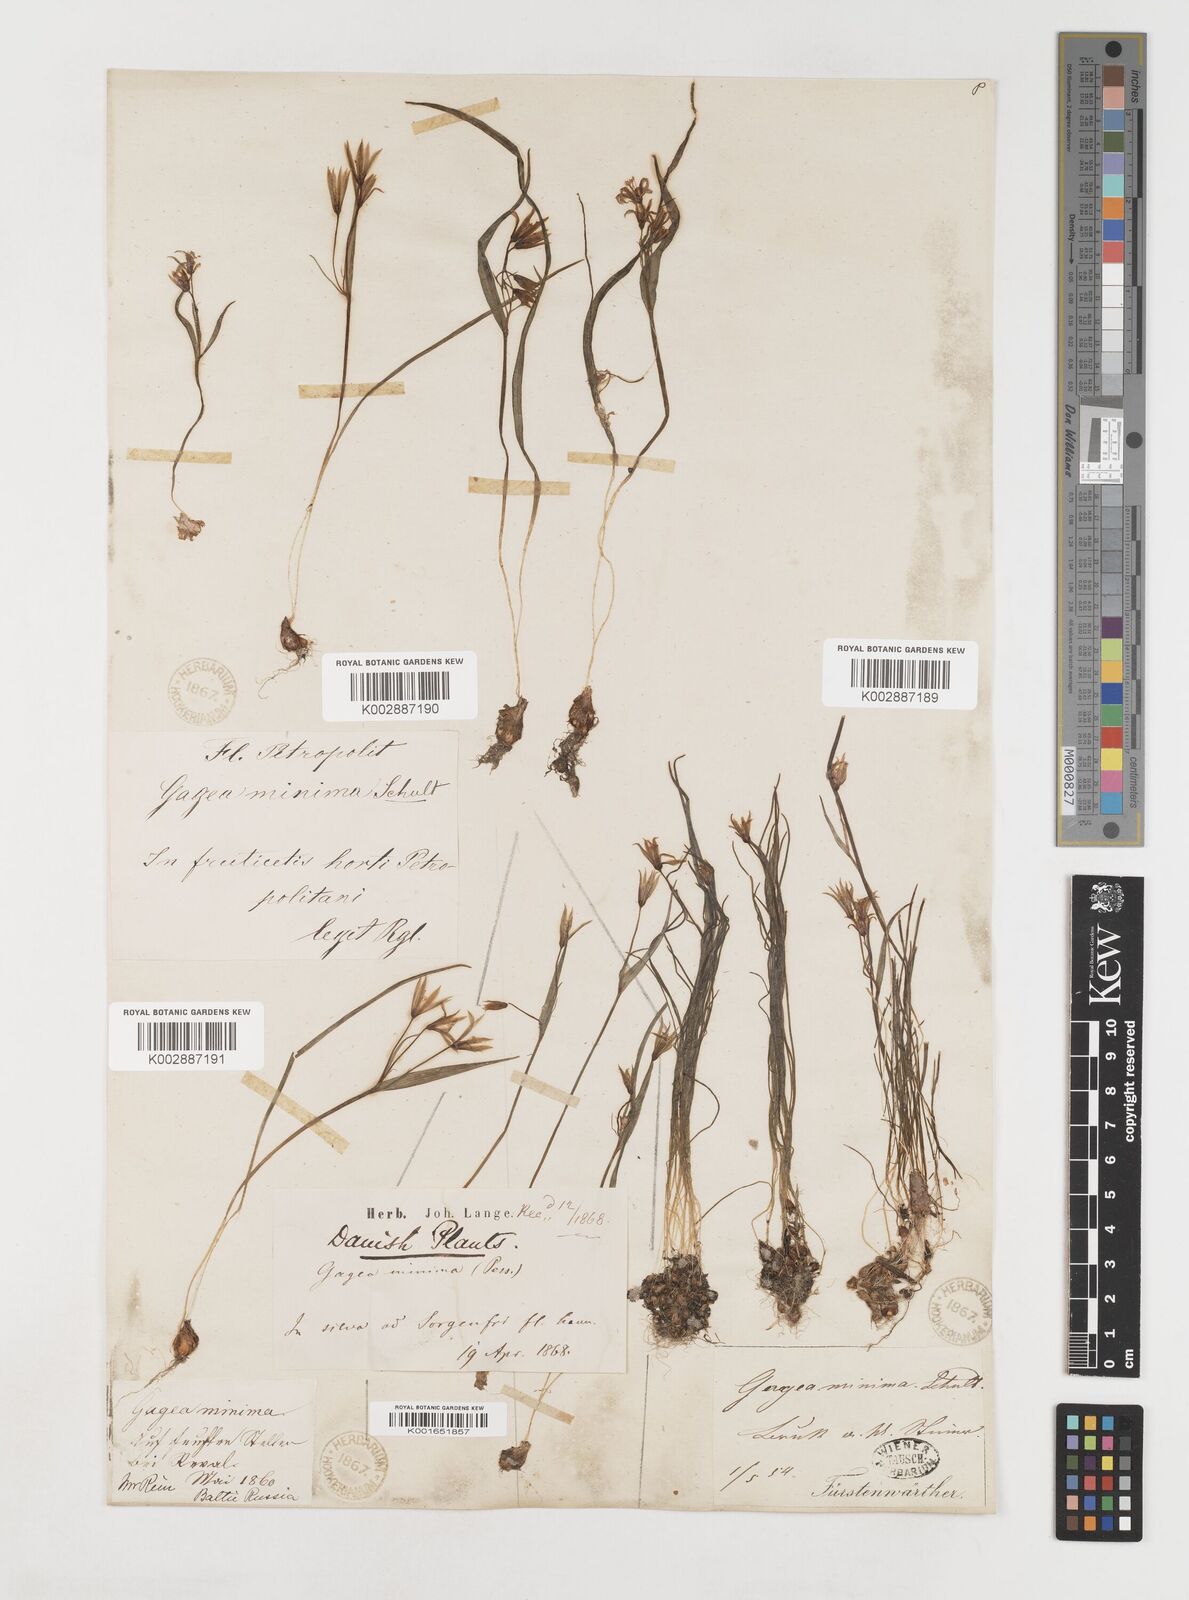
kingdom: Plantae
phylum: Tracheophyta
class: Liliopsida
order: Liliales
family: Liliaceae
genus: Gagea
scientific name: Gagea minima
